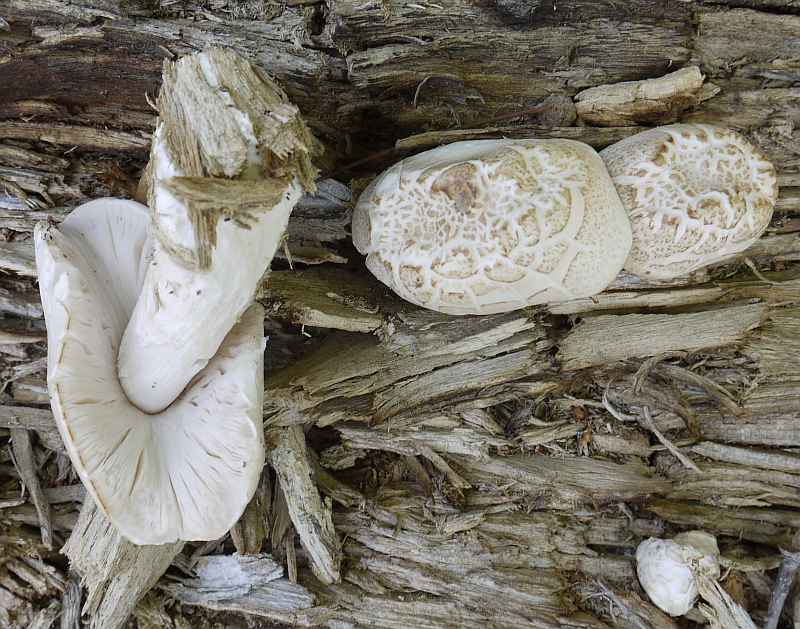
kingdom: Fungi
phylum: Basidiomycota
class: Agaricomycetes
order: Agaricales
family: Pluteaceae
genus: Pluteus
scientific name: Pluteus petasatus
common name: savsmulds-skærmhat
